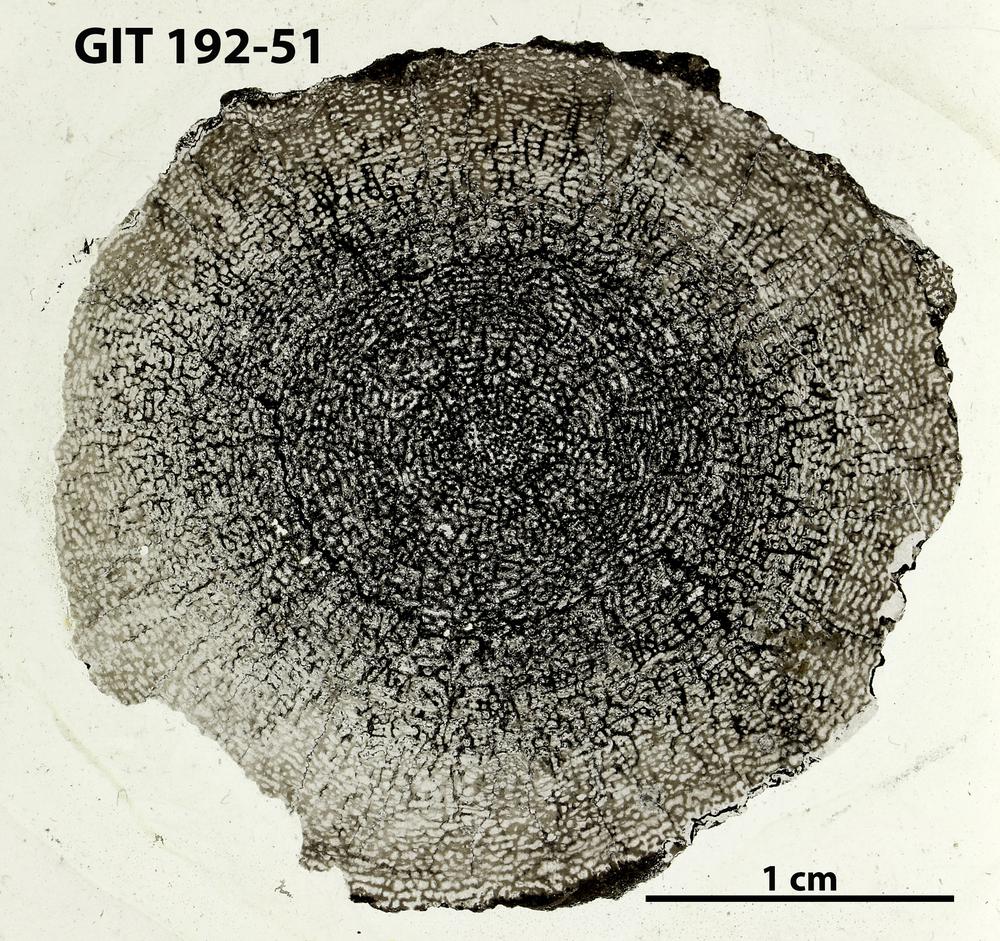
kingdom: Animalia
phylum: Porifera
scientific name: Porifera
